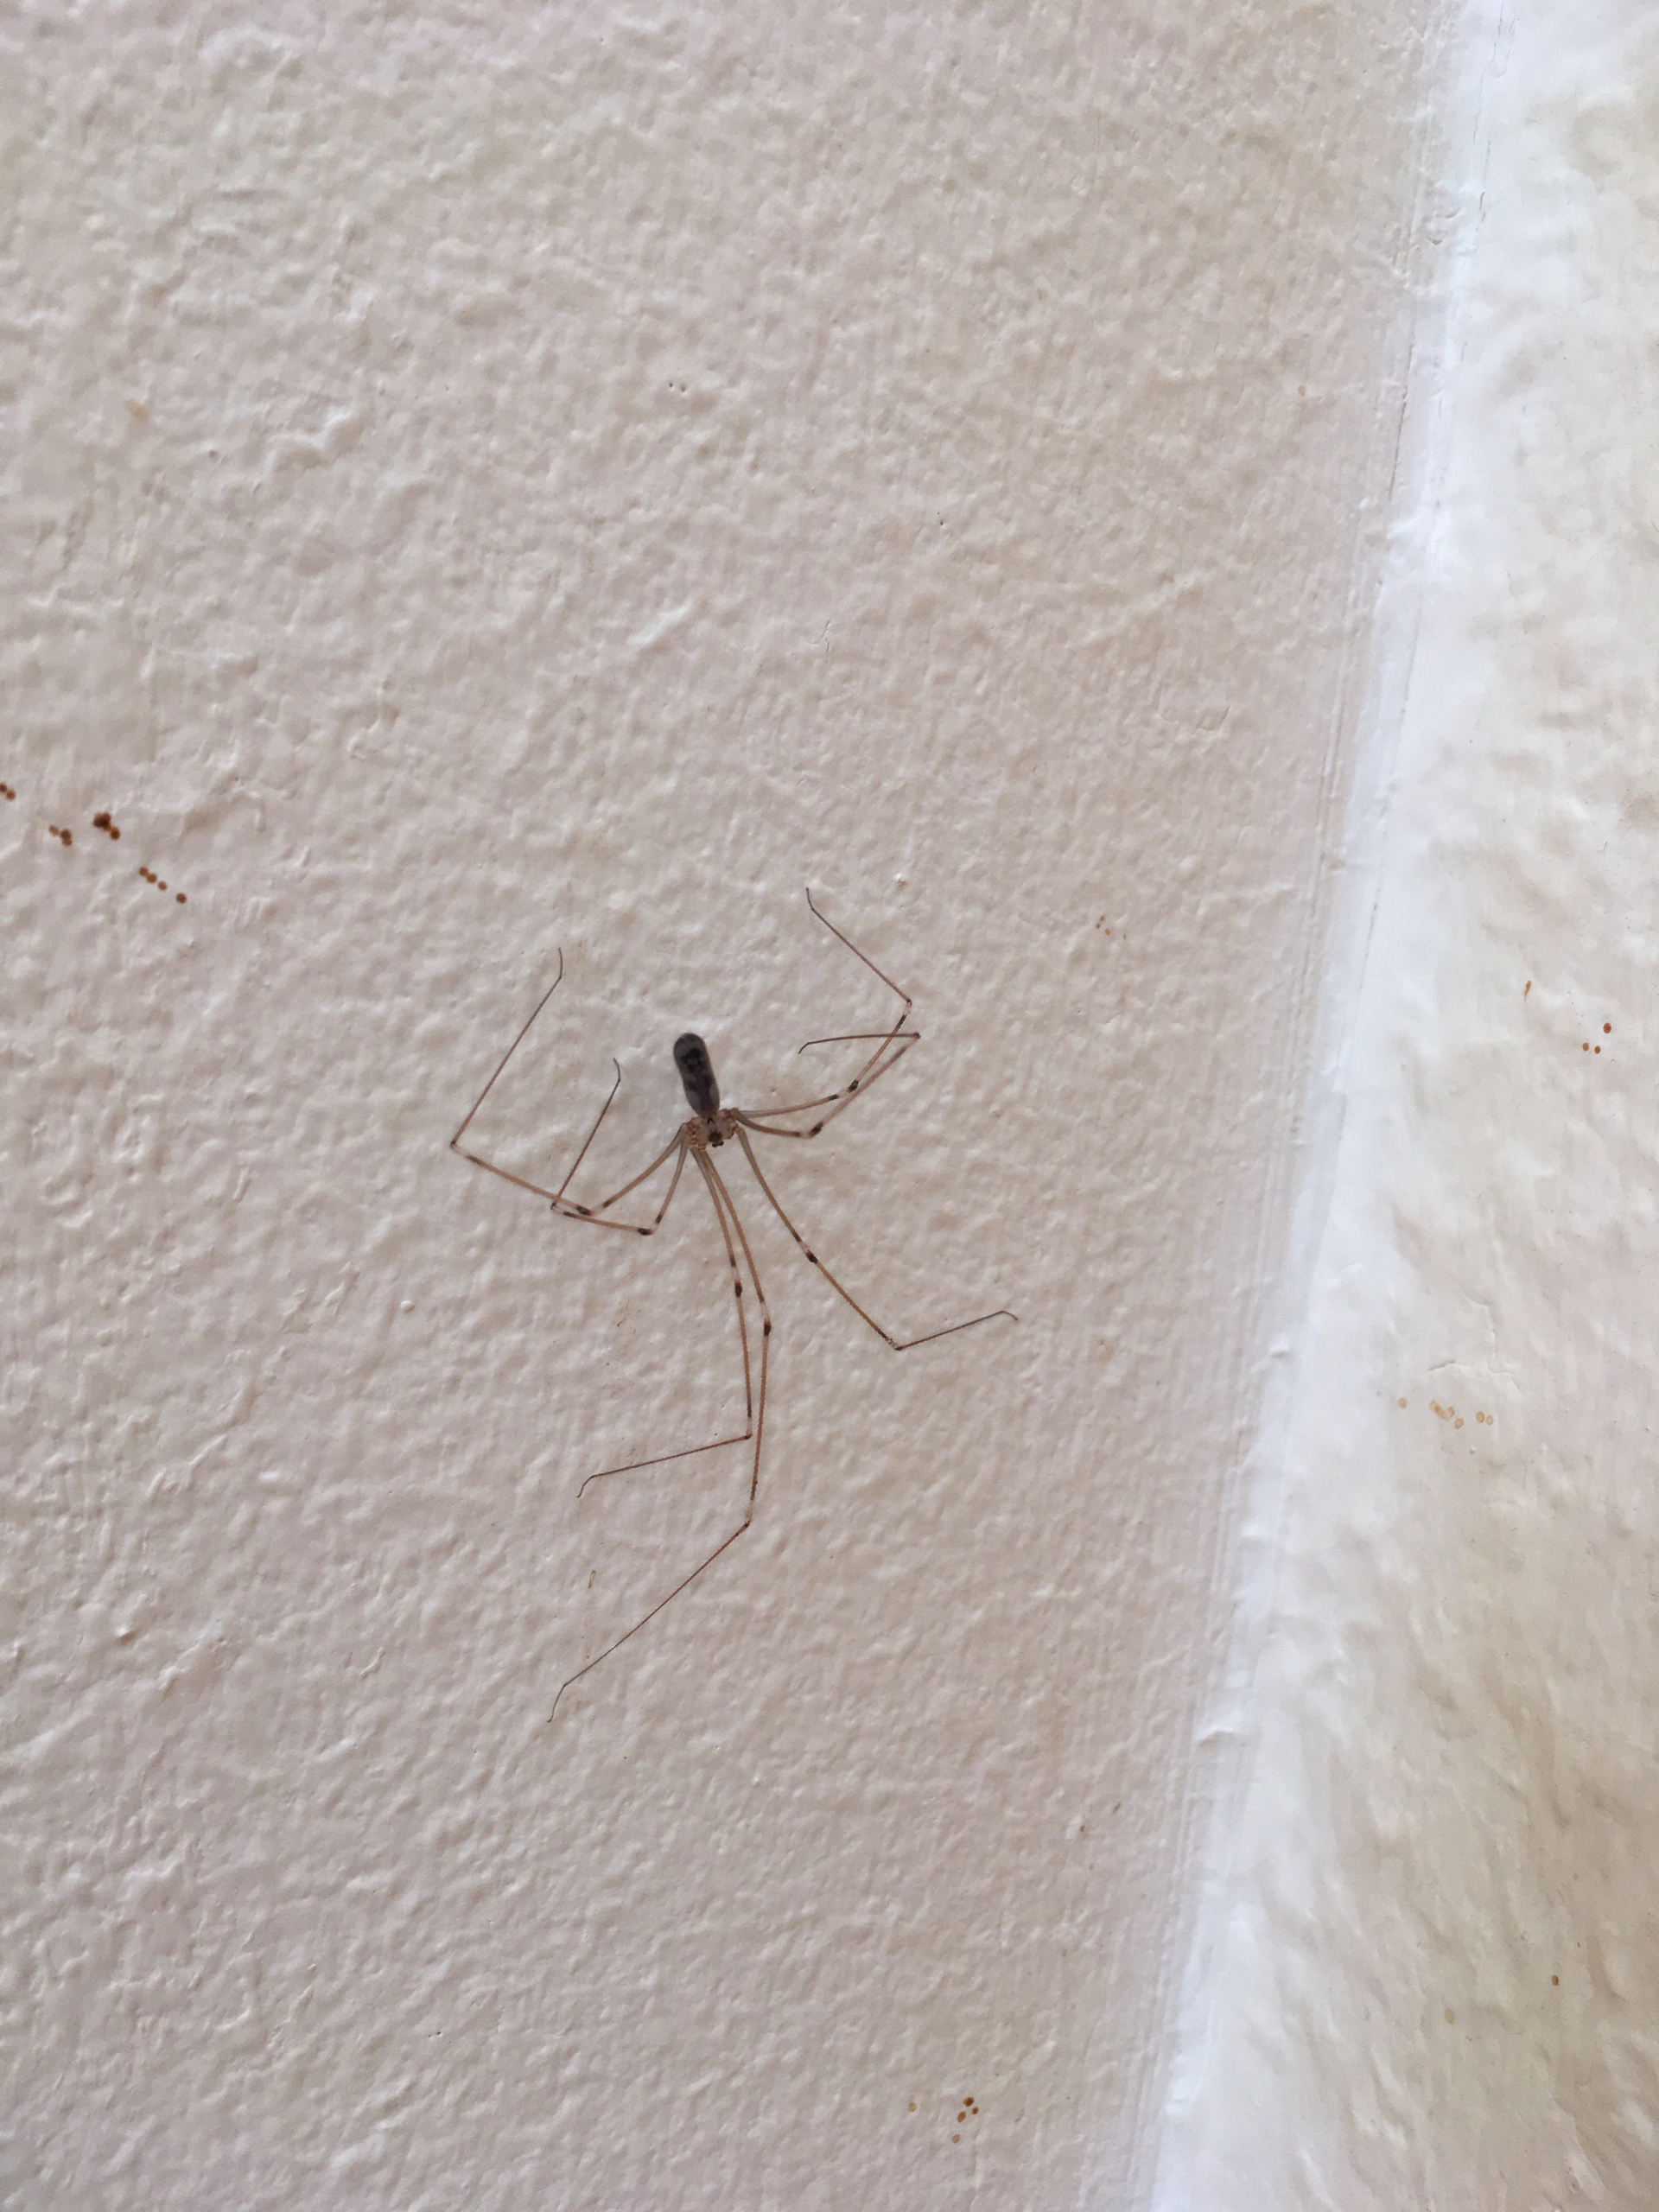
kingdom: Animalia
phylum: Arthropoda
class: Arachnida
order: Araneae
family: Pholcidae
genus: Pholcus
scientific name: Pholcus phalangioides
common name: Mejeredderkop
